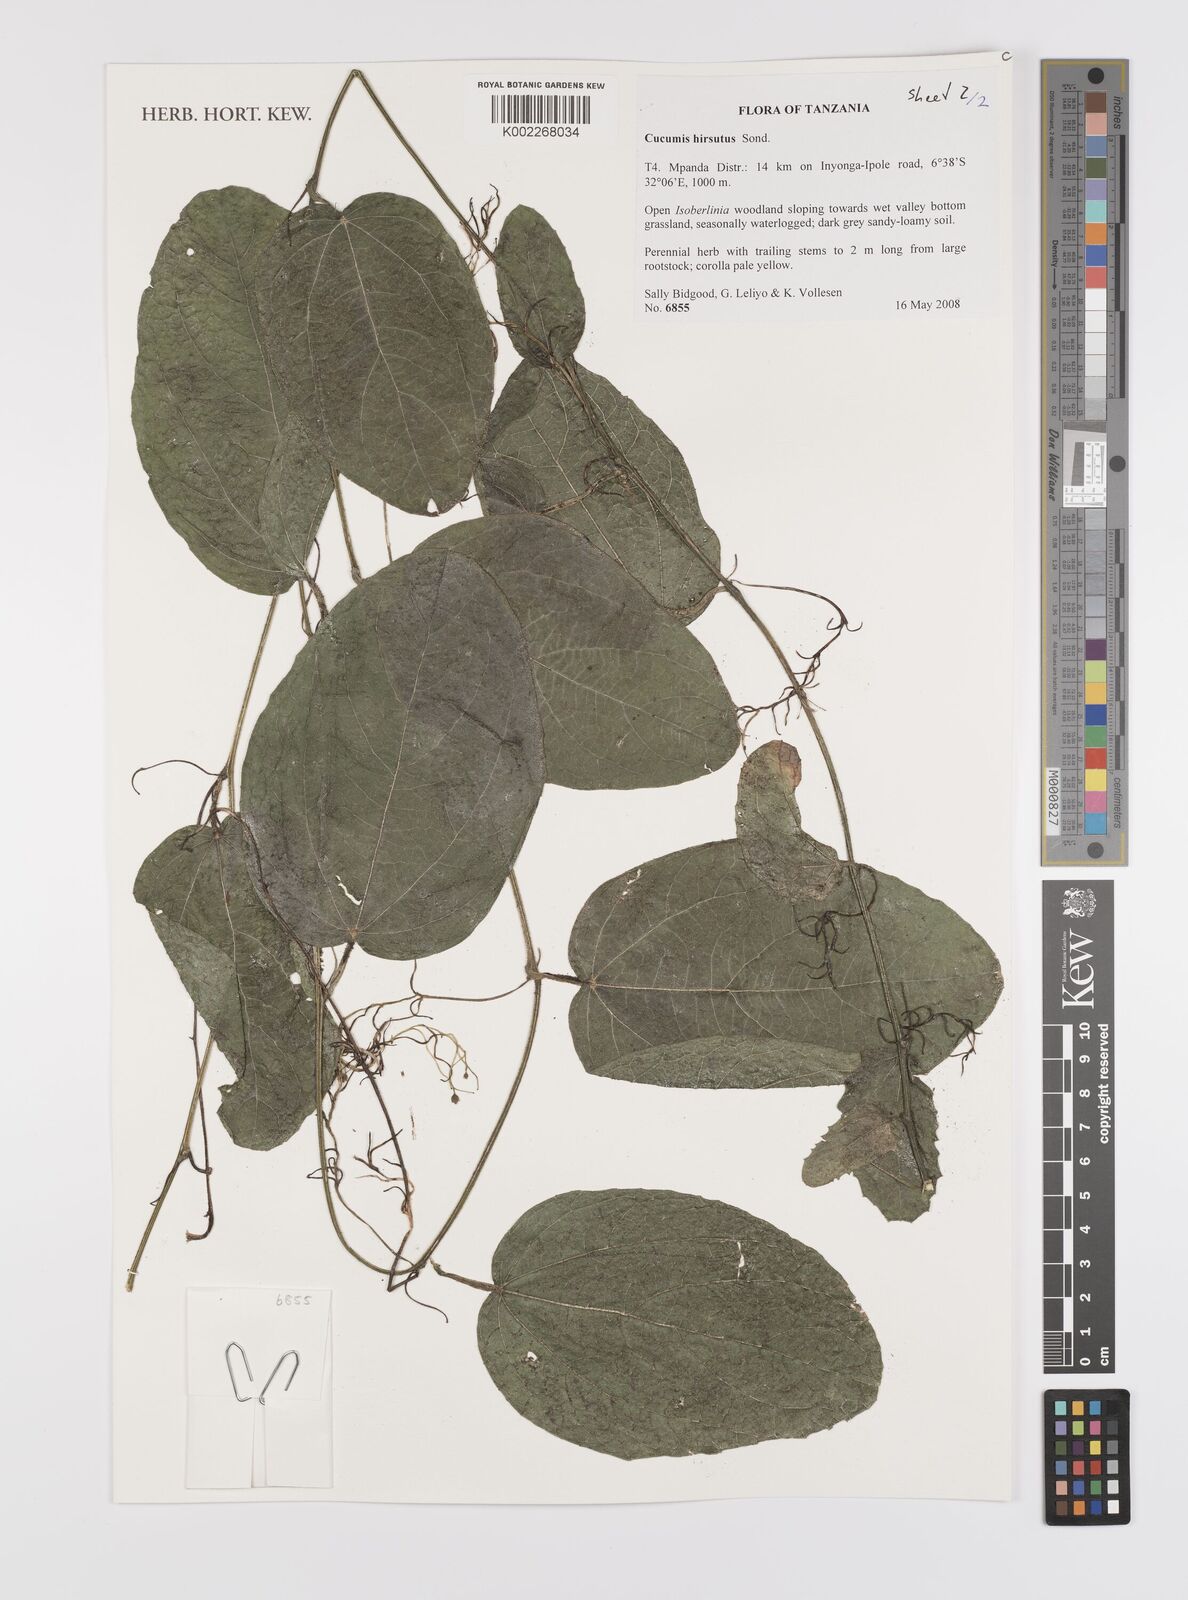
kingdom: Plantae
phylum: Tracheophyta
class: Magnoliopsida
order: Cucurbitales
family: Cucurbitaceae
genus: Cucumis
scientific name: Cucumis hirsutus
